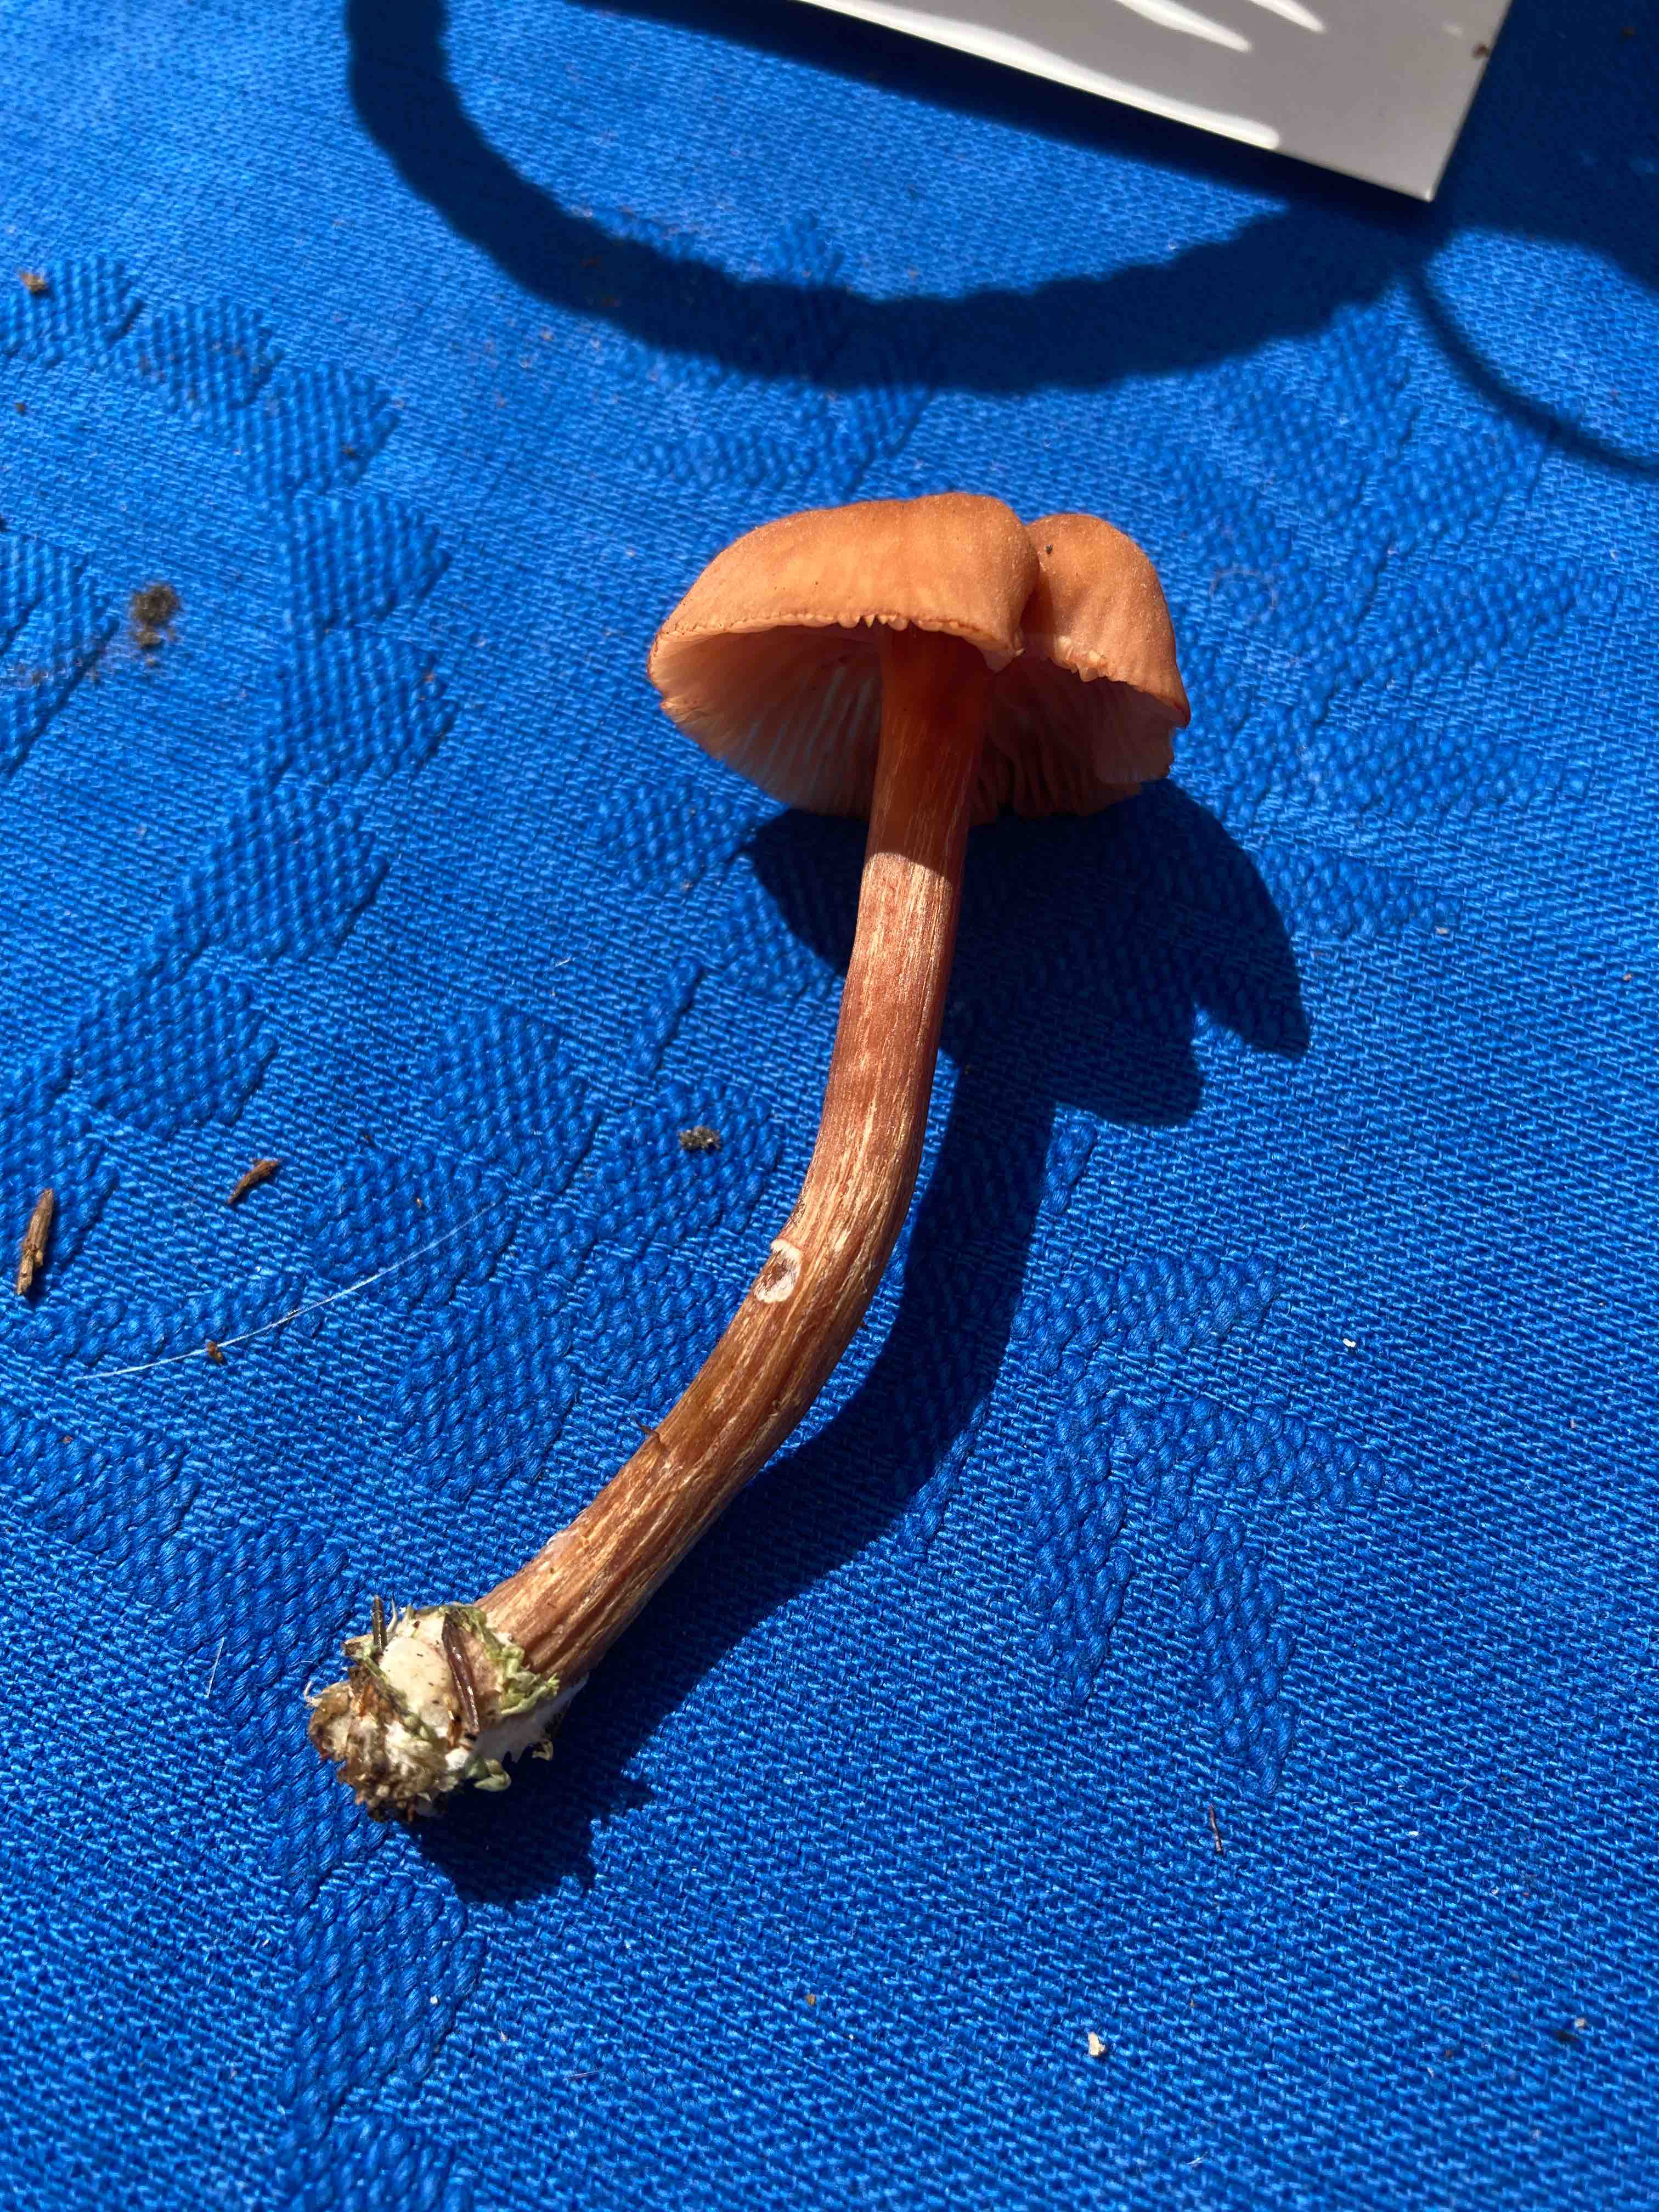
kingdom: Fungi
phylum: Basidiomycota
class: Agaricomycetes
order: Agaricales
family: Hydnangiaceae
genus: Laccaria
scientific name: Laccaria proxima
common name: stor ametysthat
